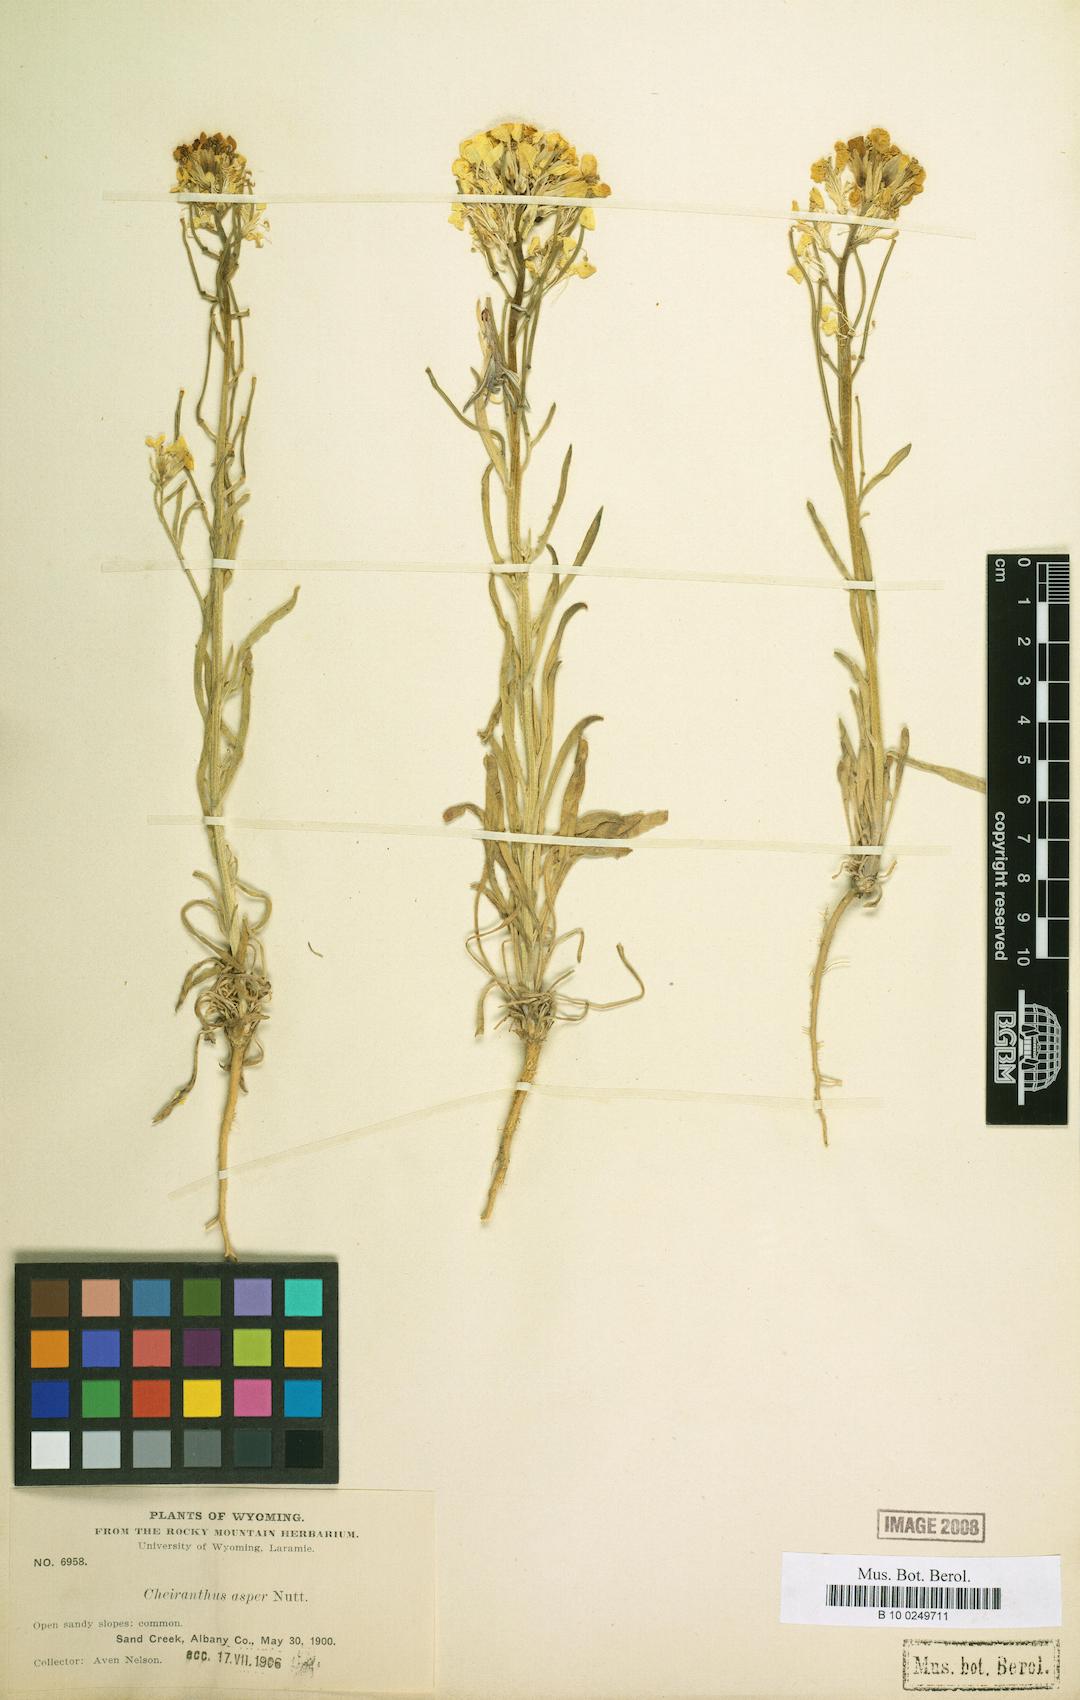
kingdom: Plantae
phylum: Tracheophyta
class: Magnoliopsida
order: Brassicales
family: Brassicaceae
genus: Erysimum
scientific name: Erysimum capitatum
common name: Western wallflower
